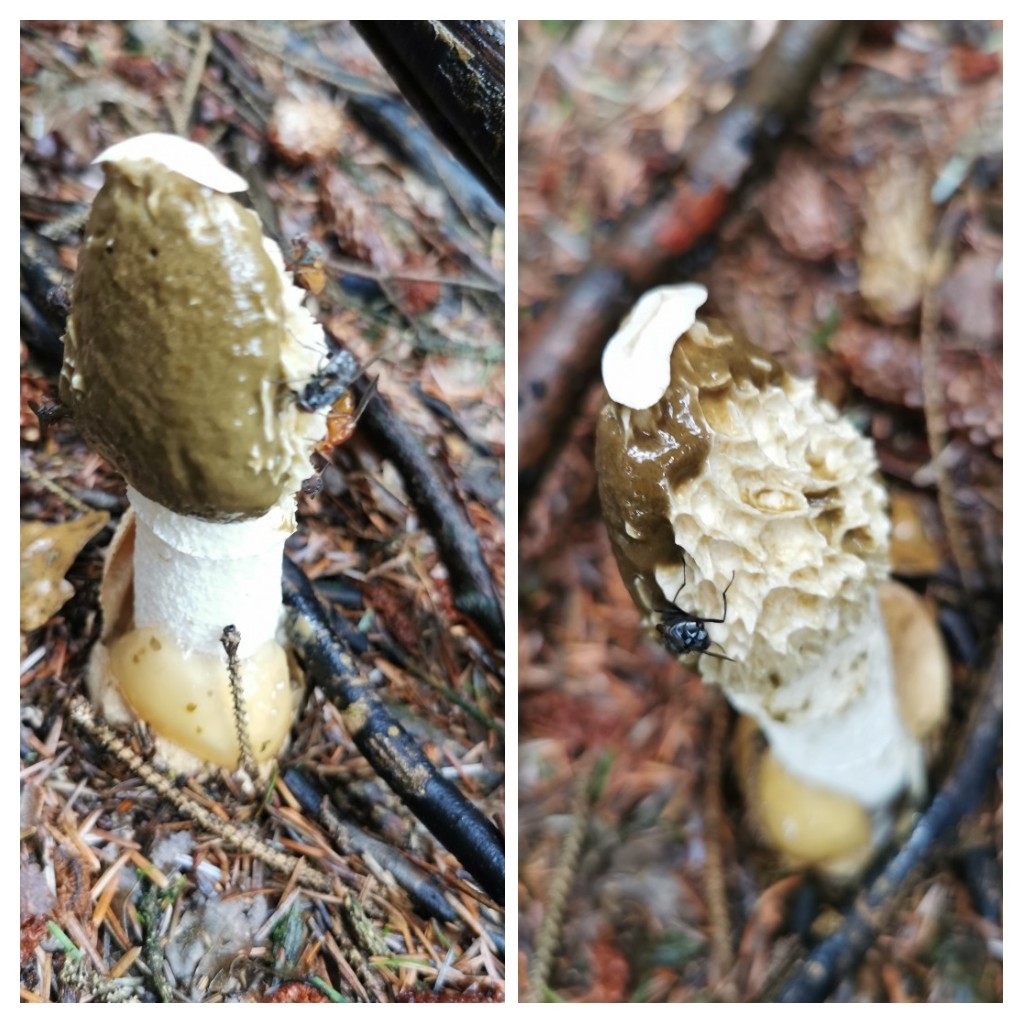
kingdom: Fungi
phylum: Basidiomycota
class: Agaricomycetes
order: Phallales
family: Phallaceae
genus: Phallus
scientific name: Phallus impudicus
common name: almindelig stinksvamp
